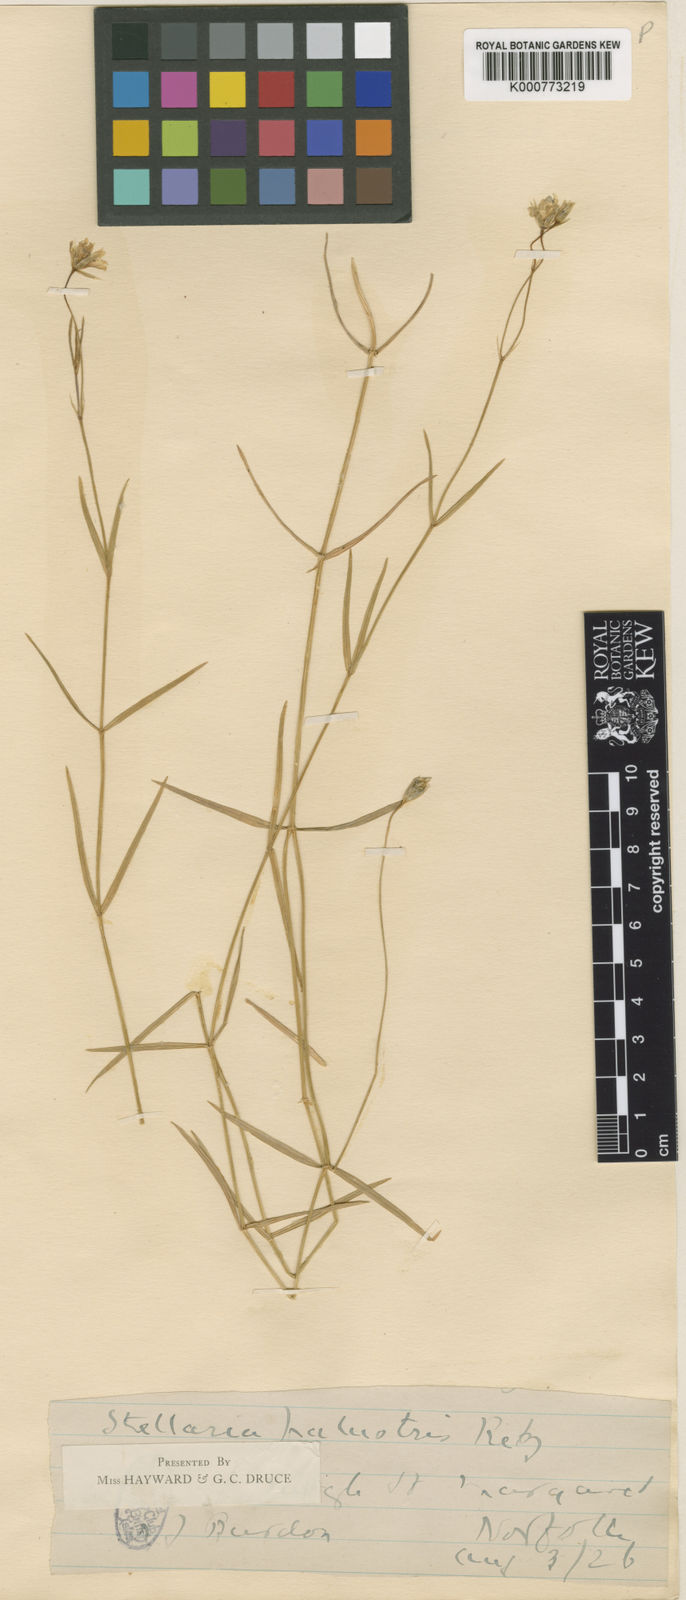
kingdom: Plantae
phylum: Tracheophyta
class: Magnoliopsida
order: Caryophyllales
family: Caryophyllaceae
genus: Stellaria
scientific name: Stellaria
